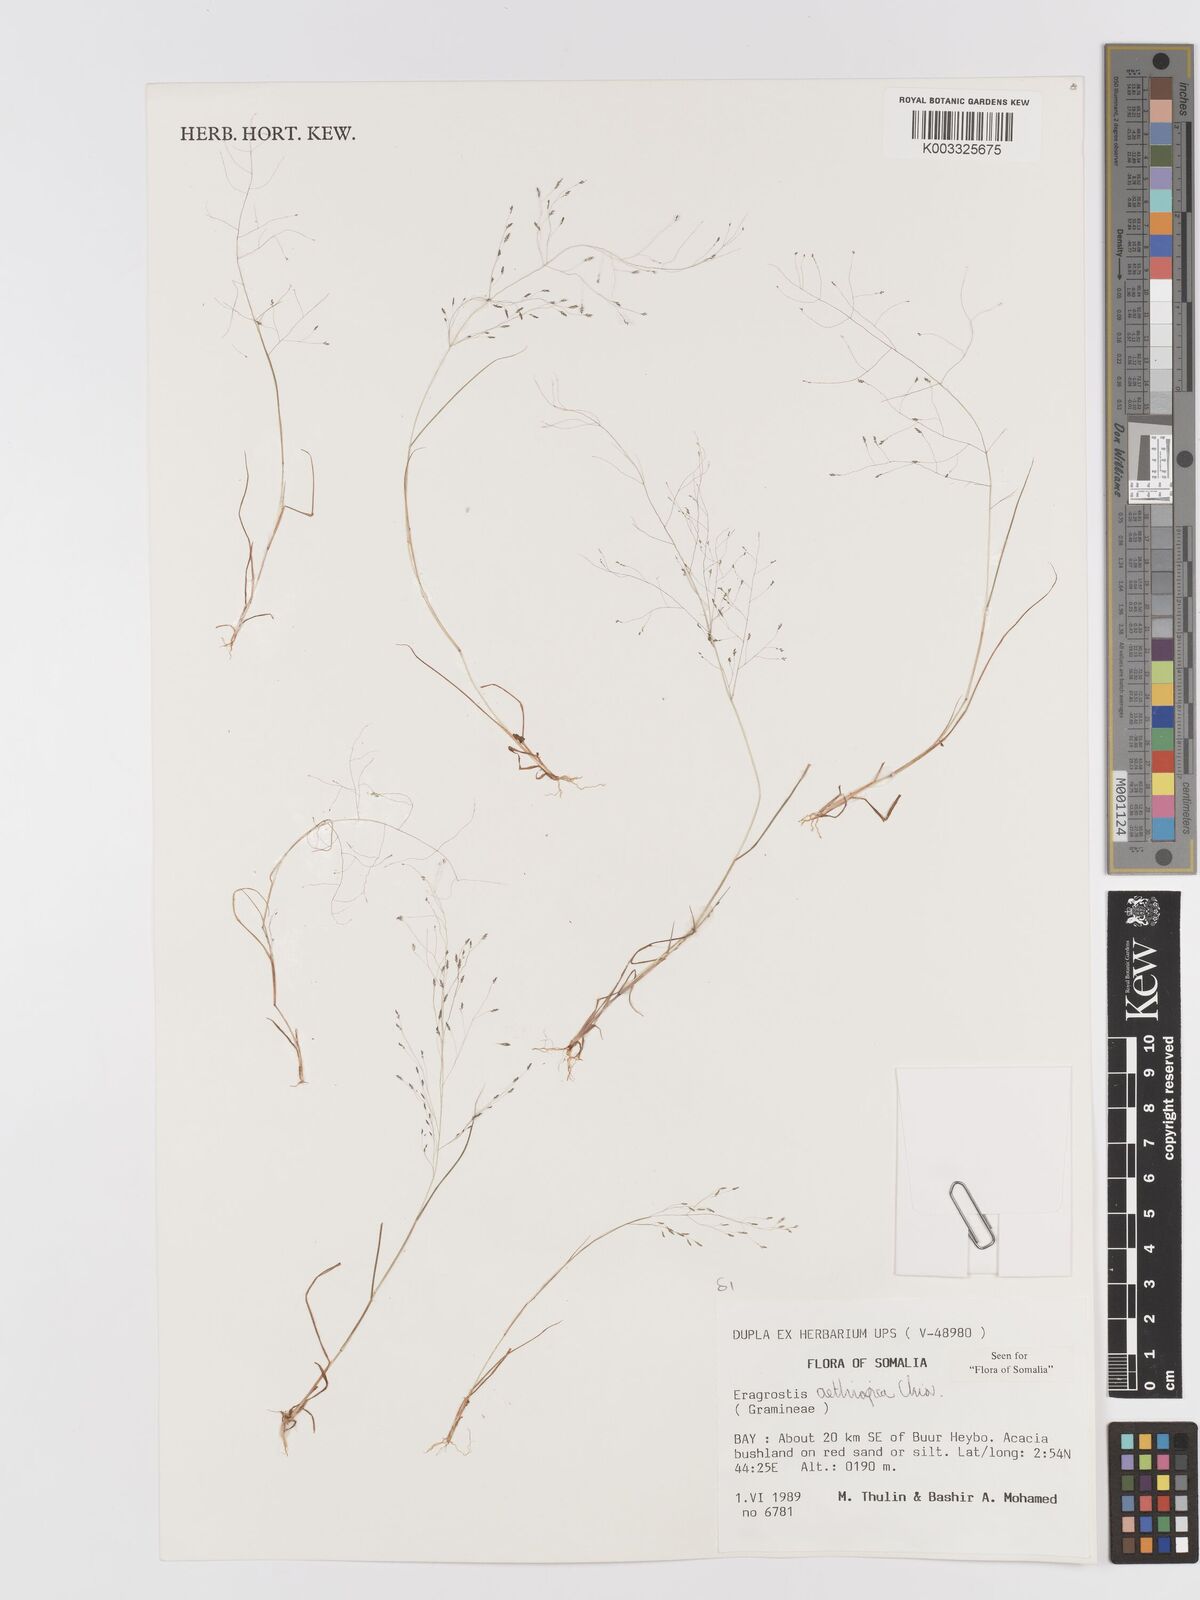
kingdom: Plantae
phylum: Tracheophyta
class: Liliopsida
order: Poales
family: Poaceae
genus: Eragrostis
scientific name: Eragrostis aethiopica
